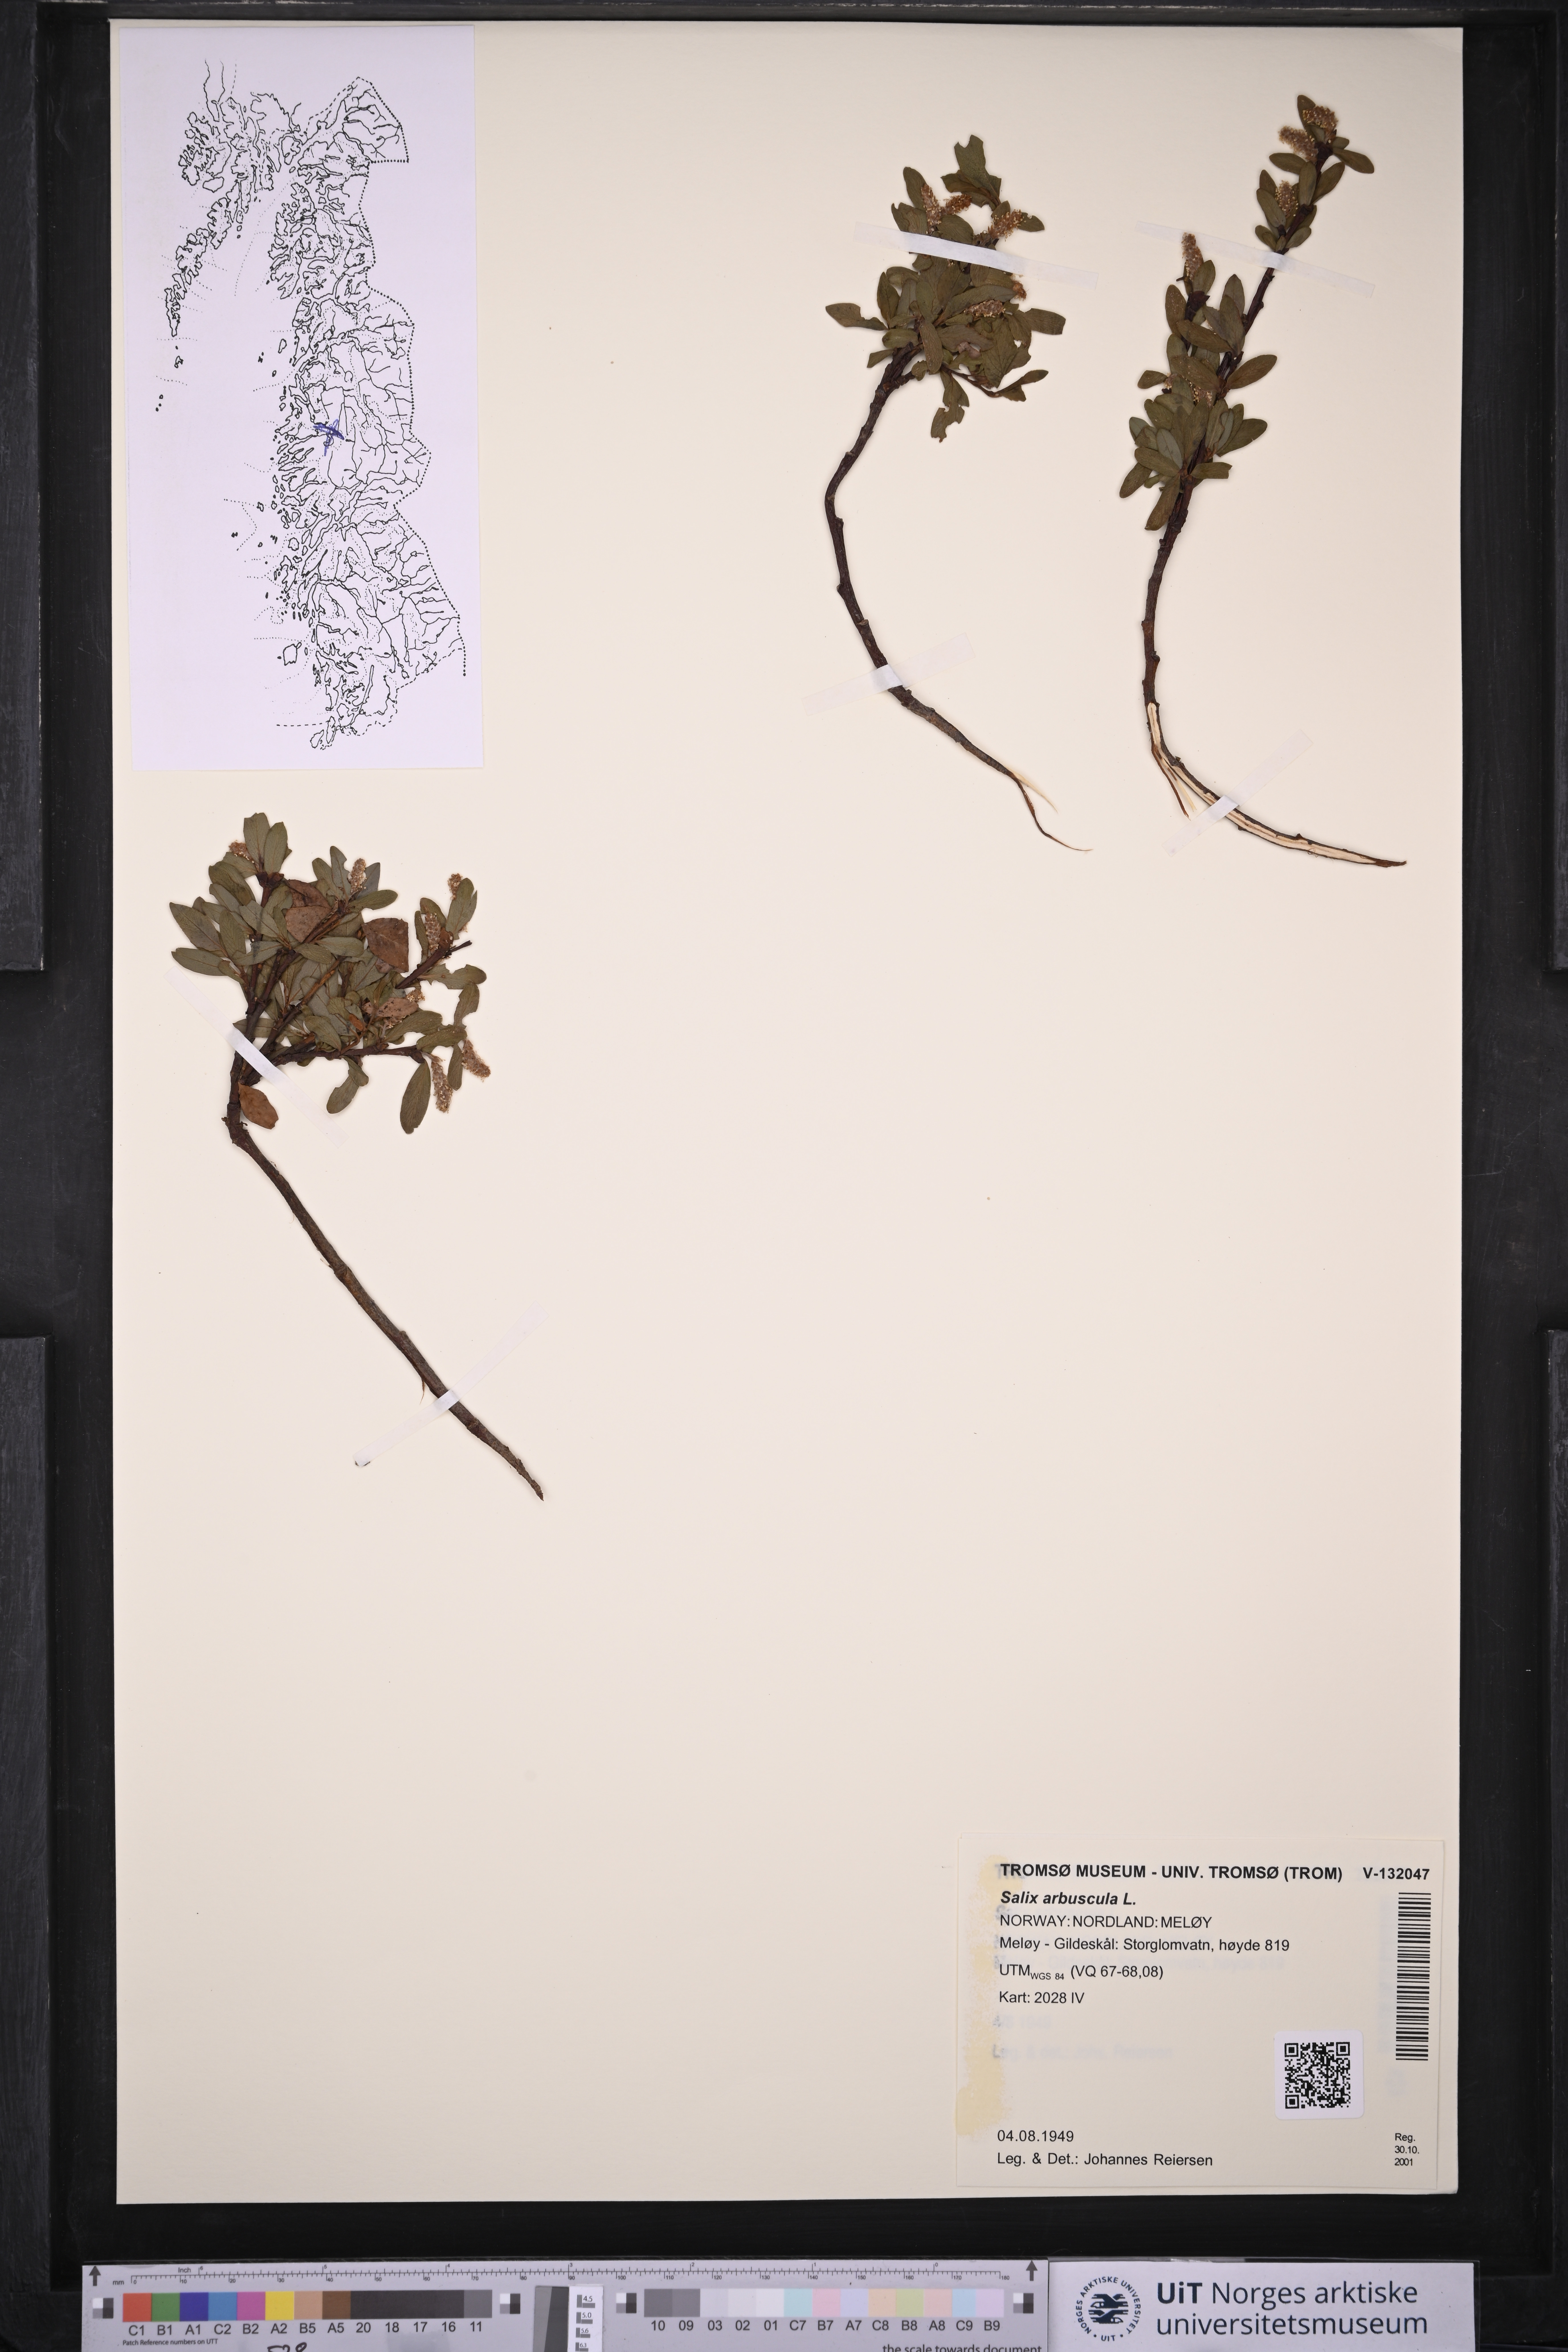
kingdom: Plantae
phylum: Tracheophyta
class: Magnoliopsida
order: Malpighiales
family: Salicaceae
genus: Salix
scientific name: Salix arbuscula
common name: Mountain willow
